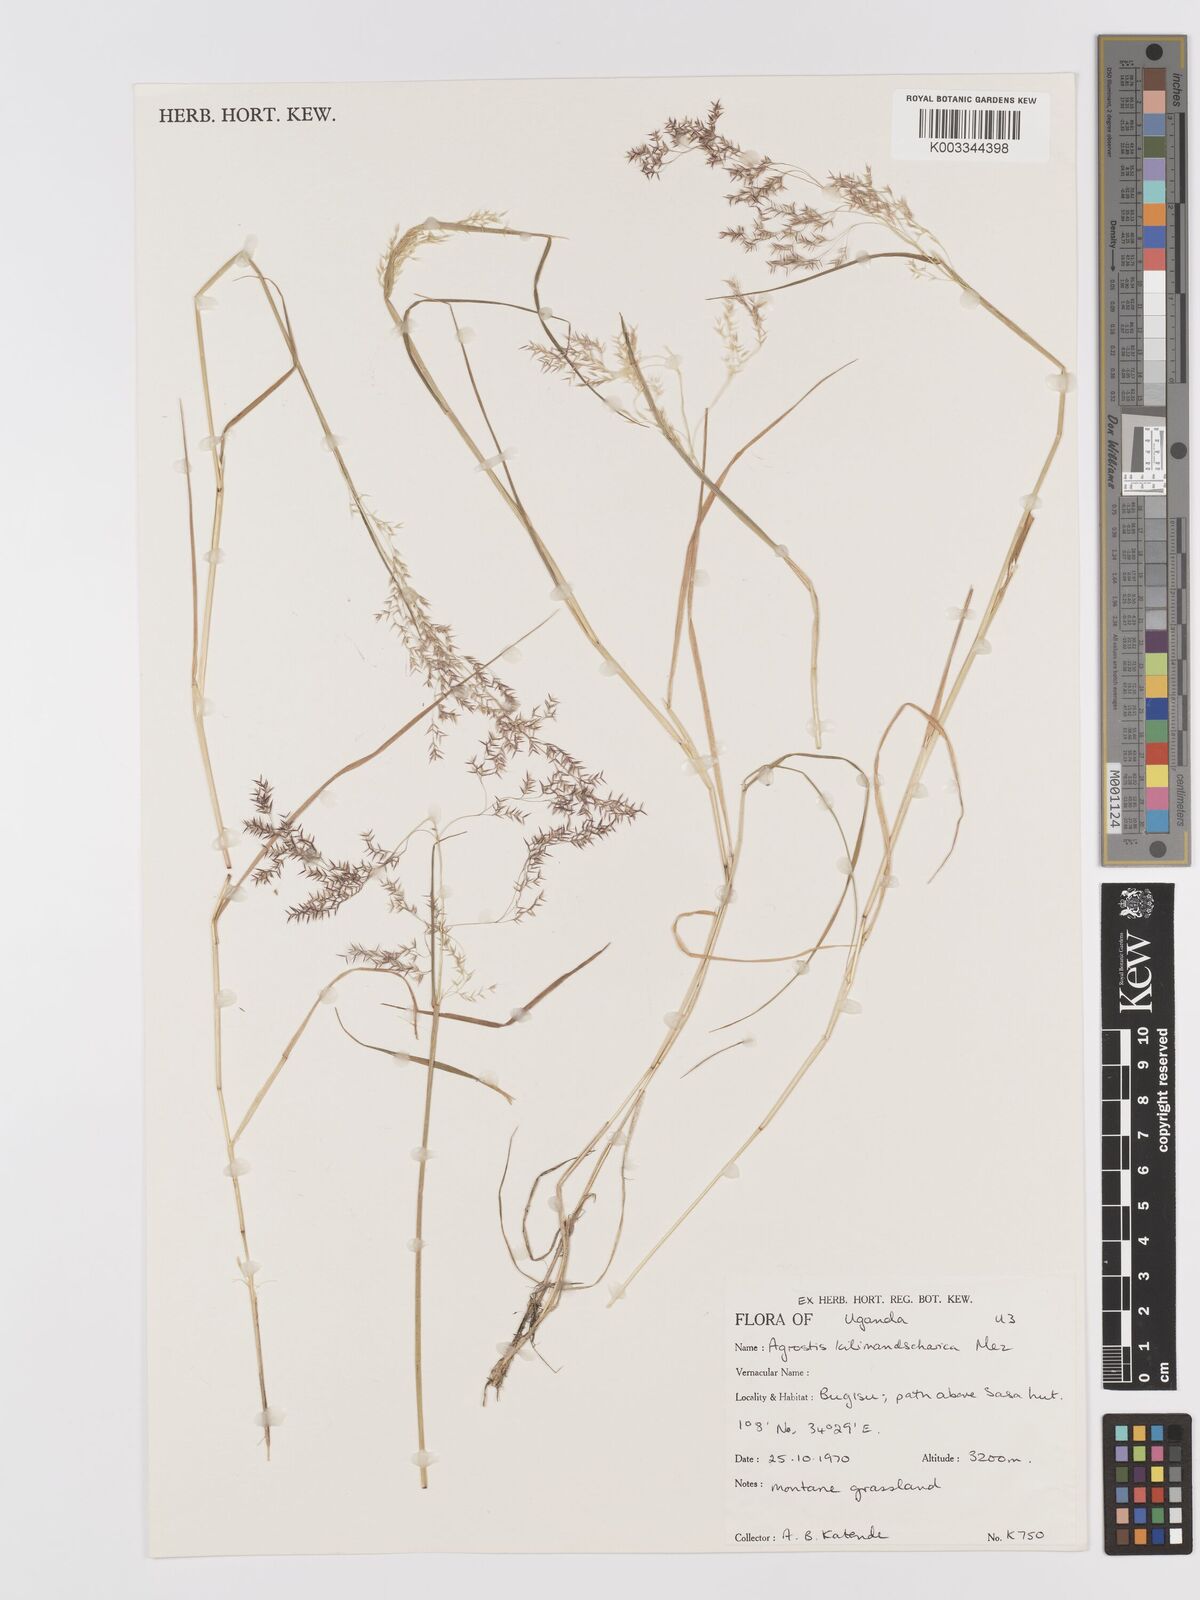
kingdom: Plantae
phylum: Tracheophyta
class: Liliopsida
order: Poales
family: Poaceae
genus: Agrostis
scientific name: Agrostis kilimandscharica
